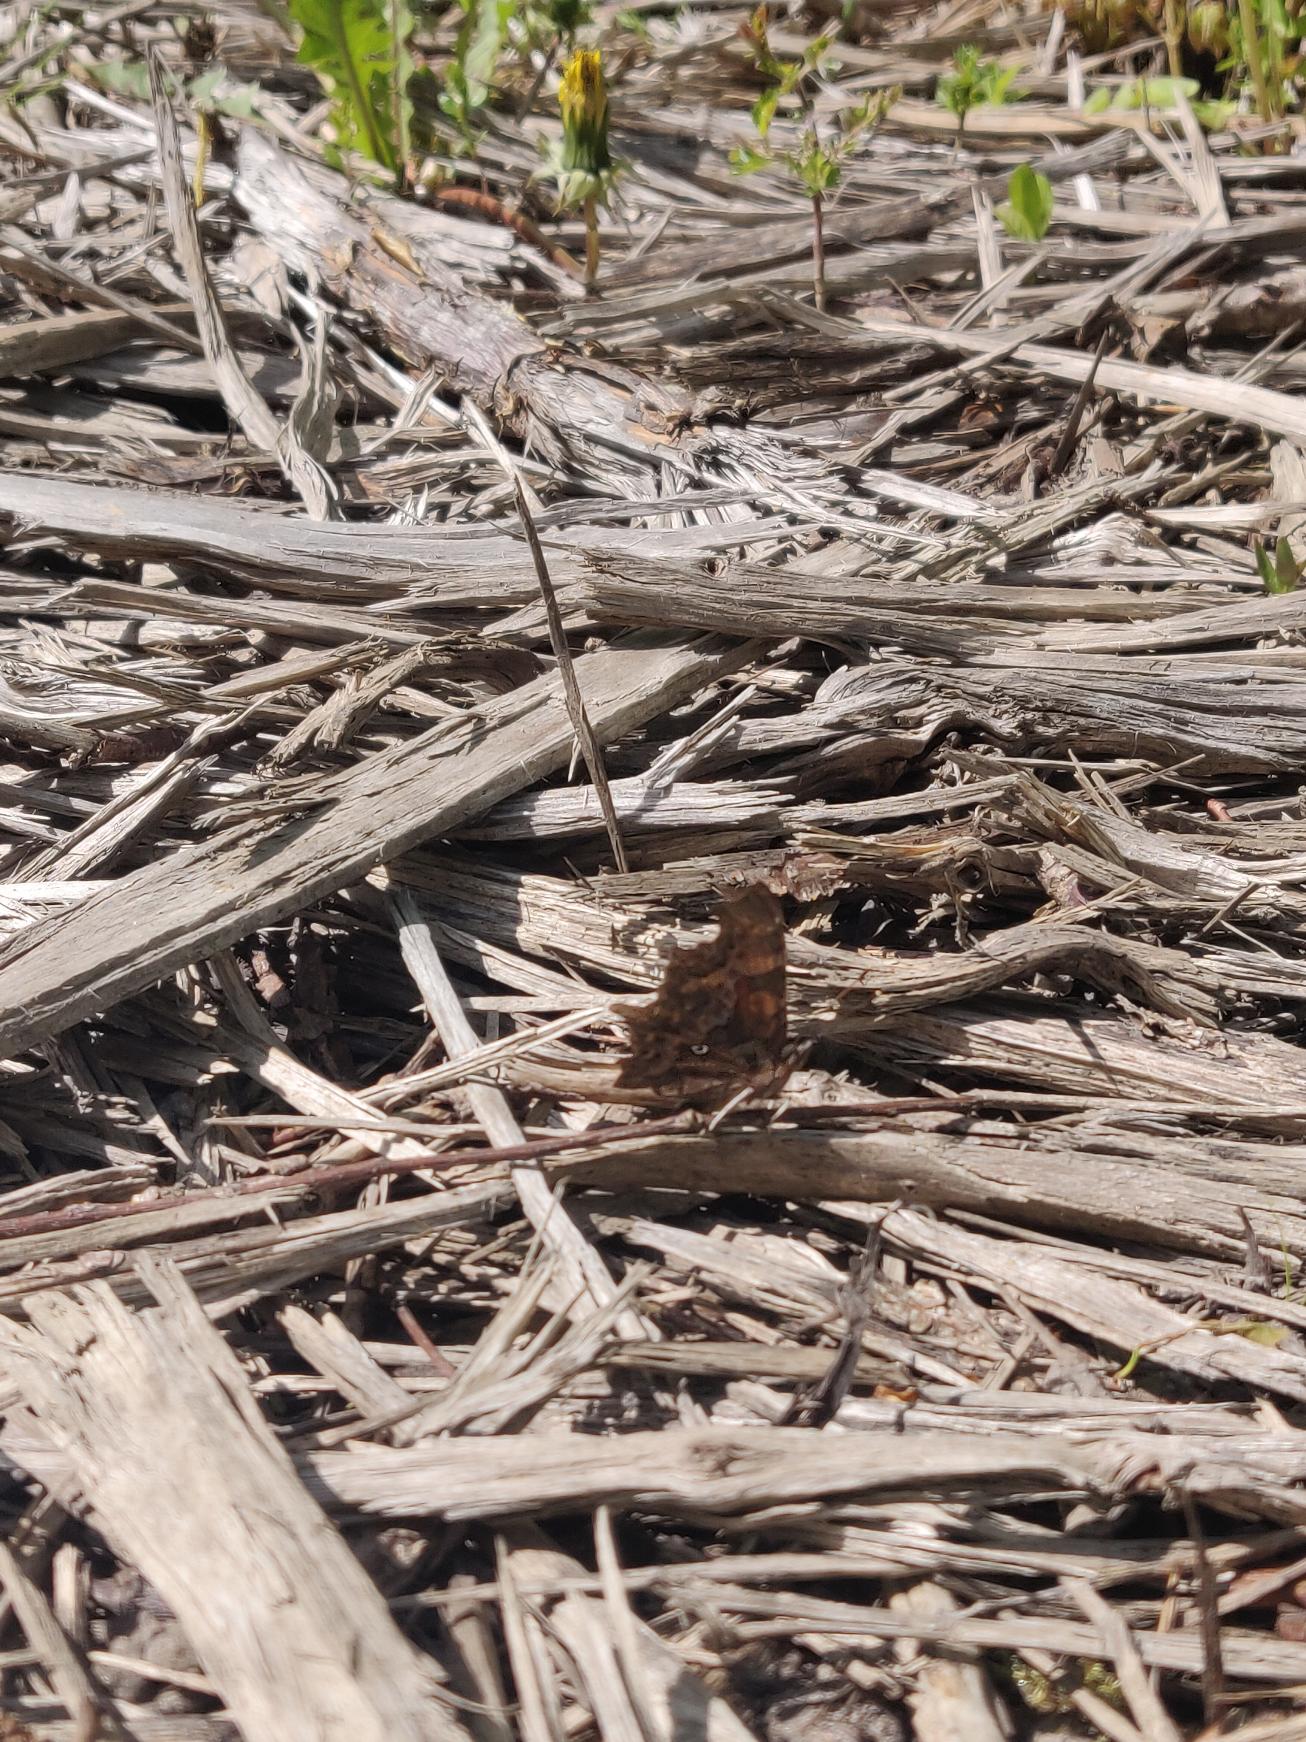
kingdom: Animalia
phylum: Arthropoda
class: Insecta
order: Lepidoptera
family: Nymphalidae
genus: Polygonia
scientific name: Polygonia c-album
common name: Det hvide C
